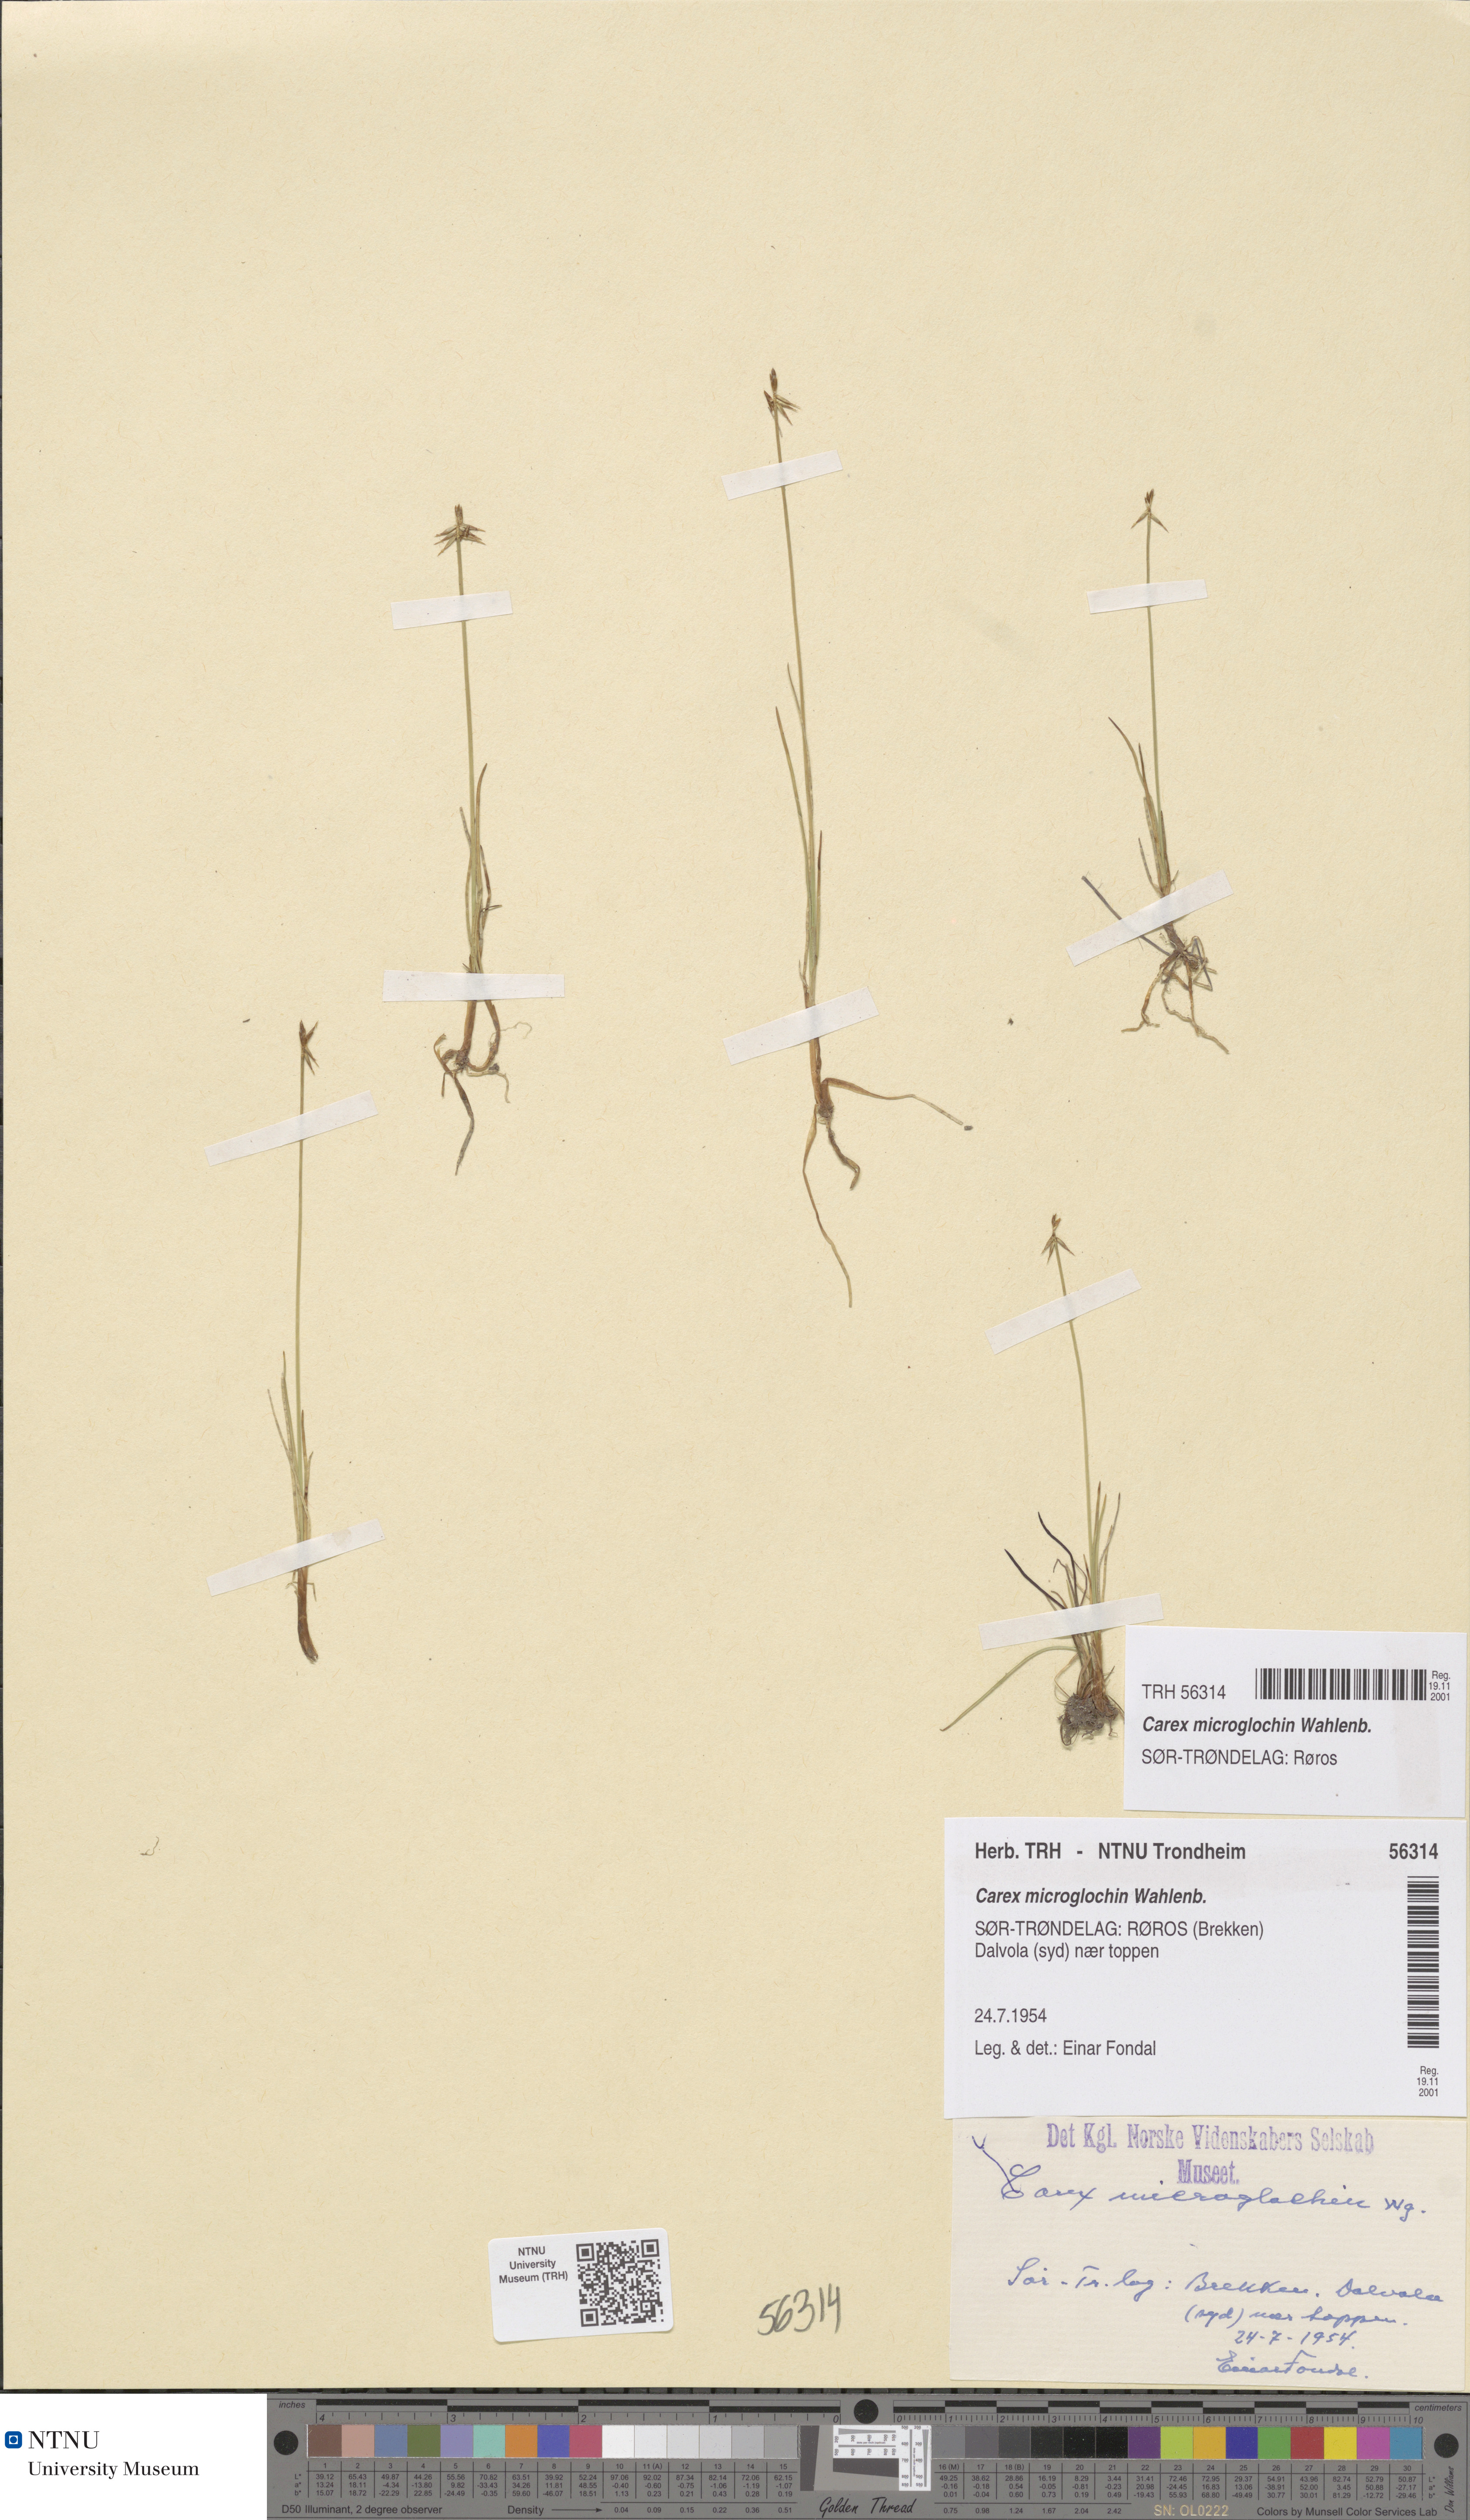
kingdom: Plantae
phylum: Tracheophyta
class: Liliopsida
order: Poales
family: Cyperaceae
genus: Carex
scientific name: Carex microglochin
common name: Bristle sedge
